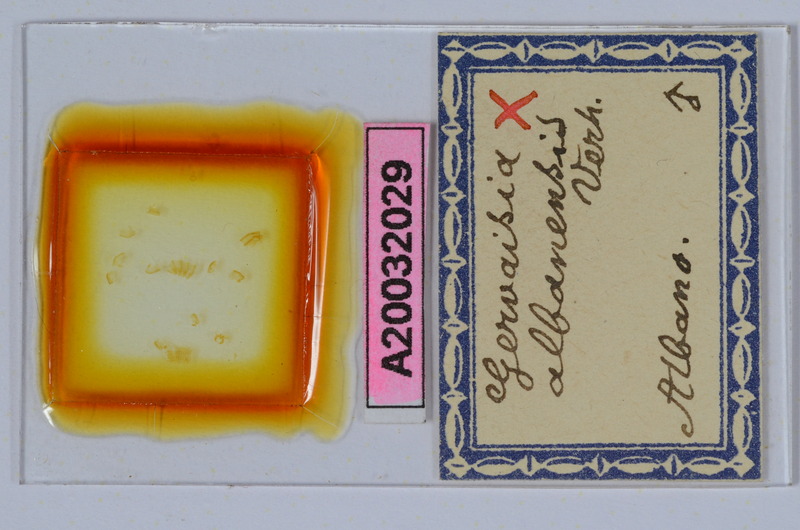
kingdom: Animalia
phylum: Arthropoda
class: Diplopoda
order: Glomerida
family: Glomeridae
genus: Trachysphaera
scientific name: Trachysphaera apenninorum
